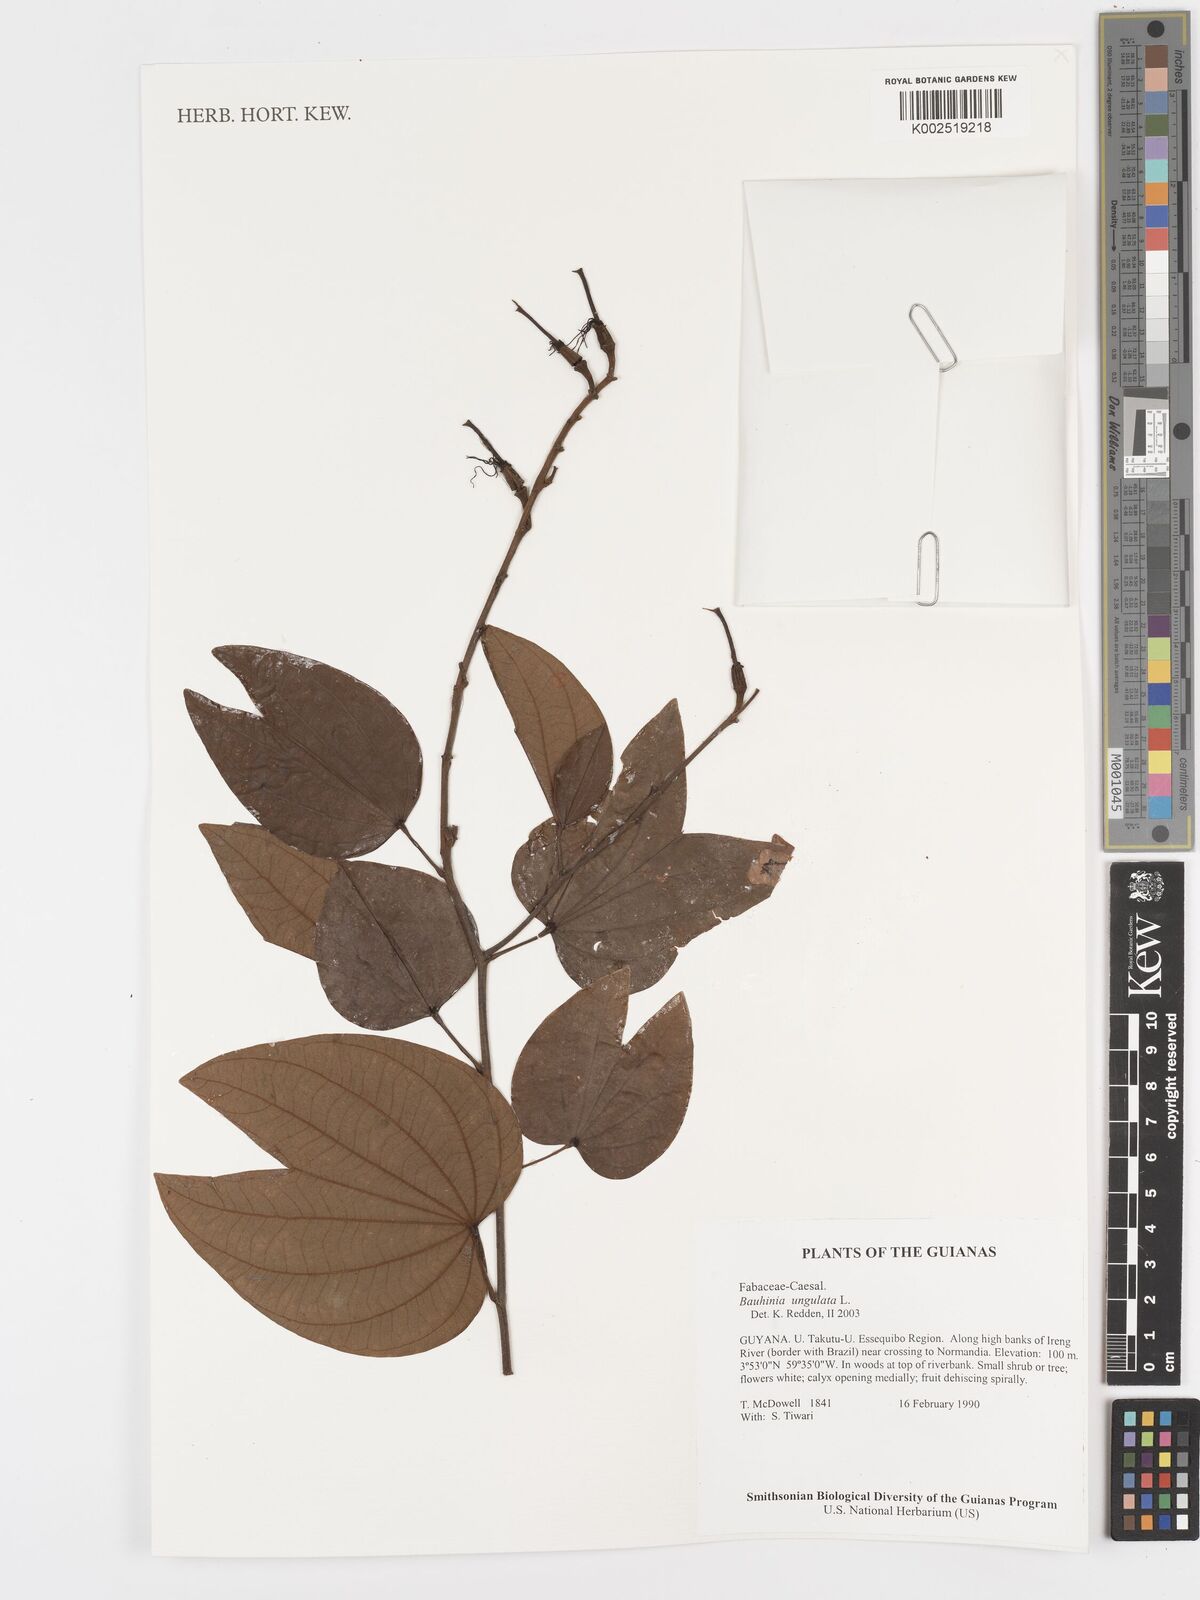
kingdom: Plantae
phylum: Tracheophyta
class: Magnoliopsida
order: Fabales
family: Fabaceae
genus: Bauhinia
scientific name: Bauhinia ungulata
